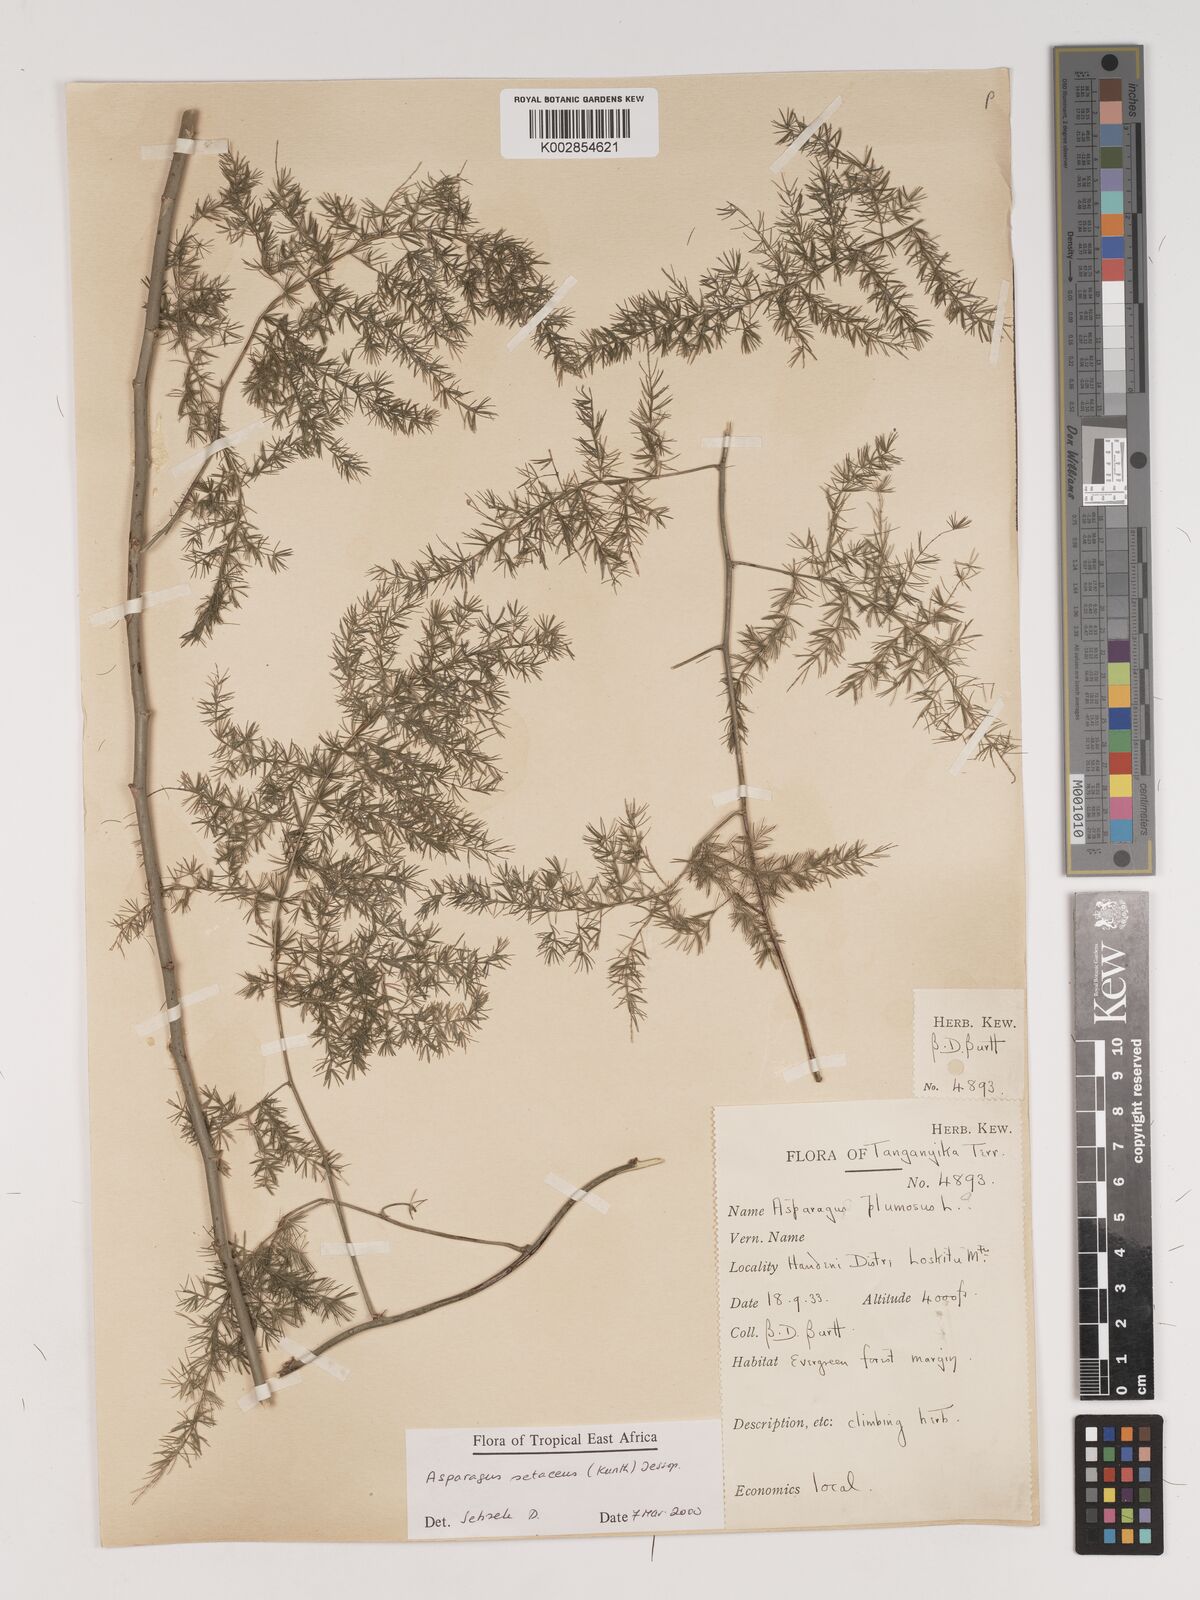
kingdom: Plantae
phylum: Tracheophyta
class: Liliopsida
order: Asparagales
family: Asparagaceae
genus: Asparagus
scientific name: Asparagus setaceus
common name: Common asparagus fern
